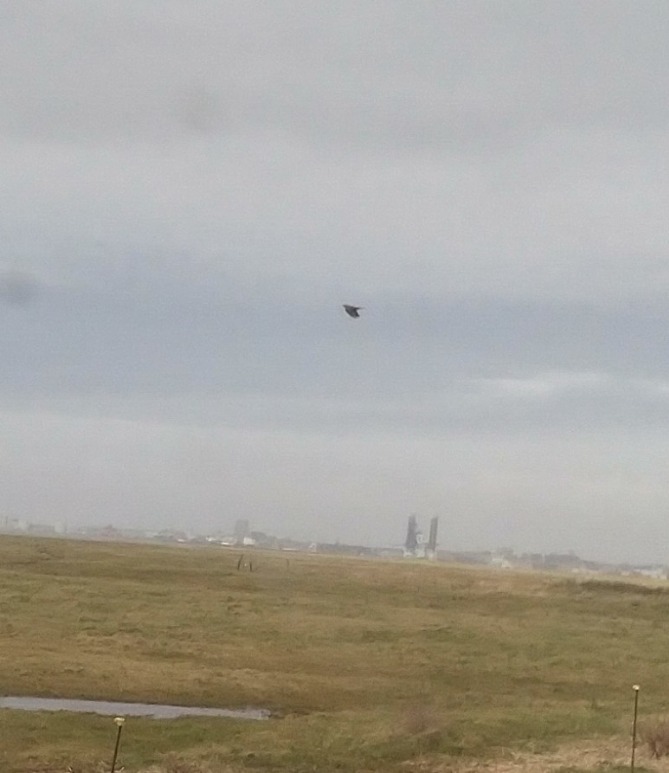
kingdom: Animalia
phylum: Chordata
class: Aves
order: Passeriformes
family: Alaudidae
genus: Alauda
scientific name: Alauda arvensis
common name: Sanglærke
